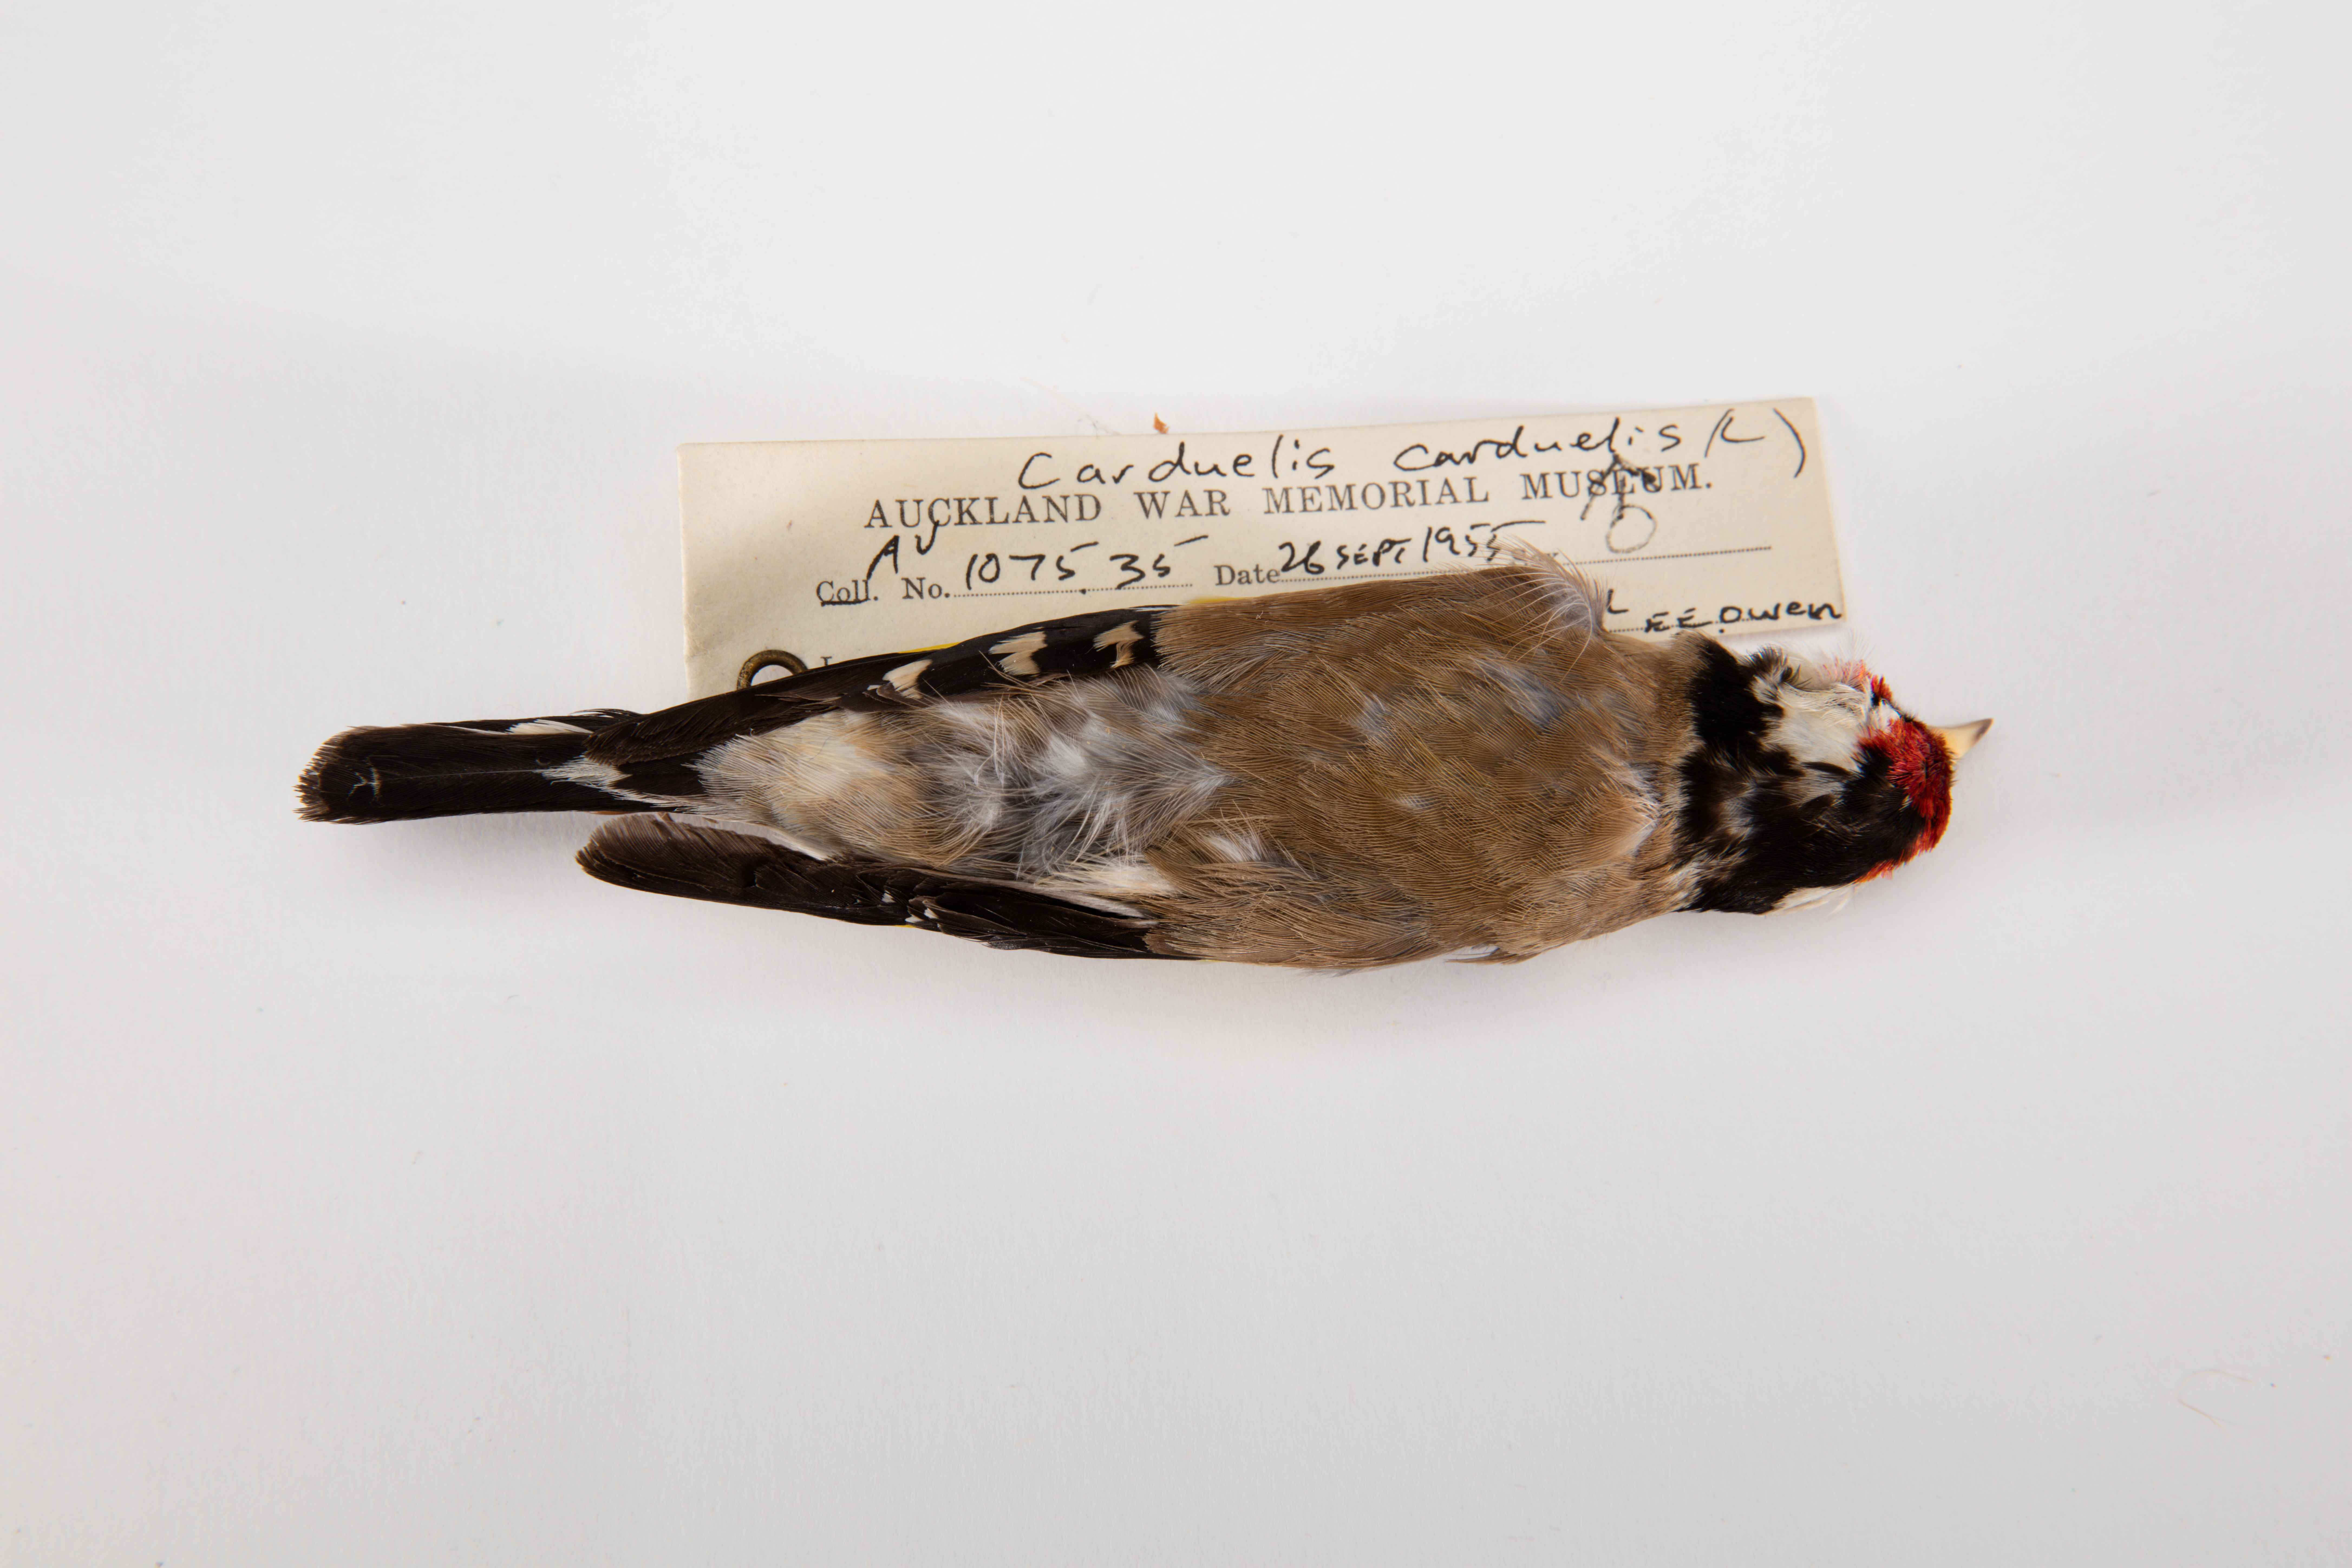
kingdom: Animalia
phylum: Chordata
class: Aves
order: Passeriformes
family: Fringillidae
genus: Carduelis
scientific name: Carduelis carduelis
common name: European goldfinch
